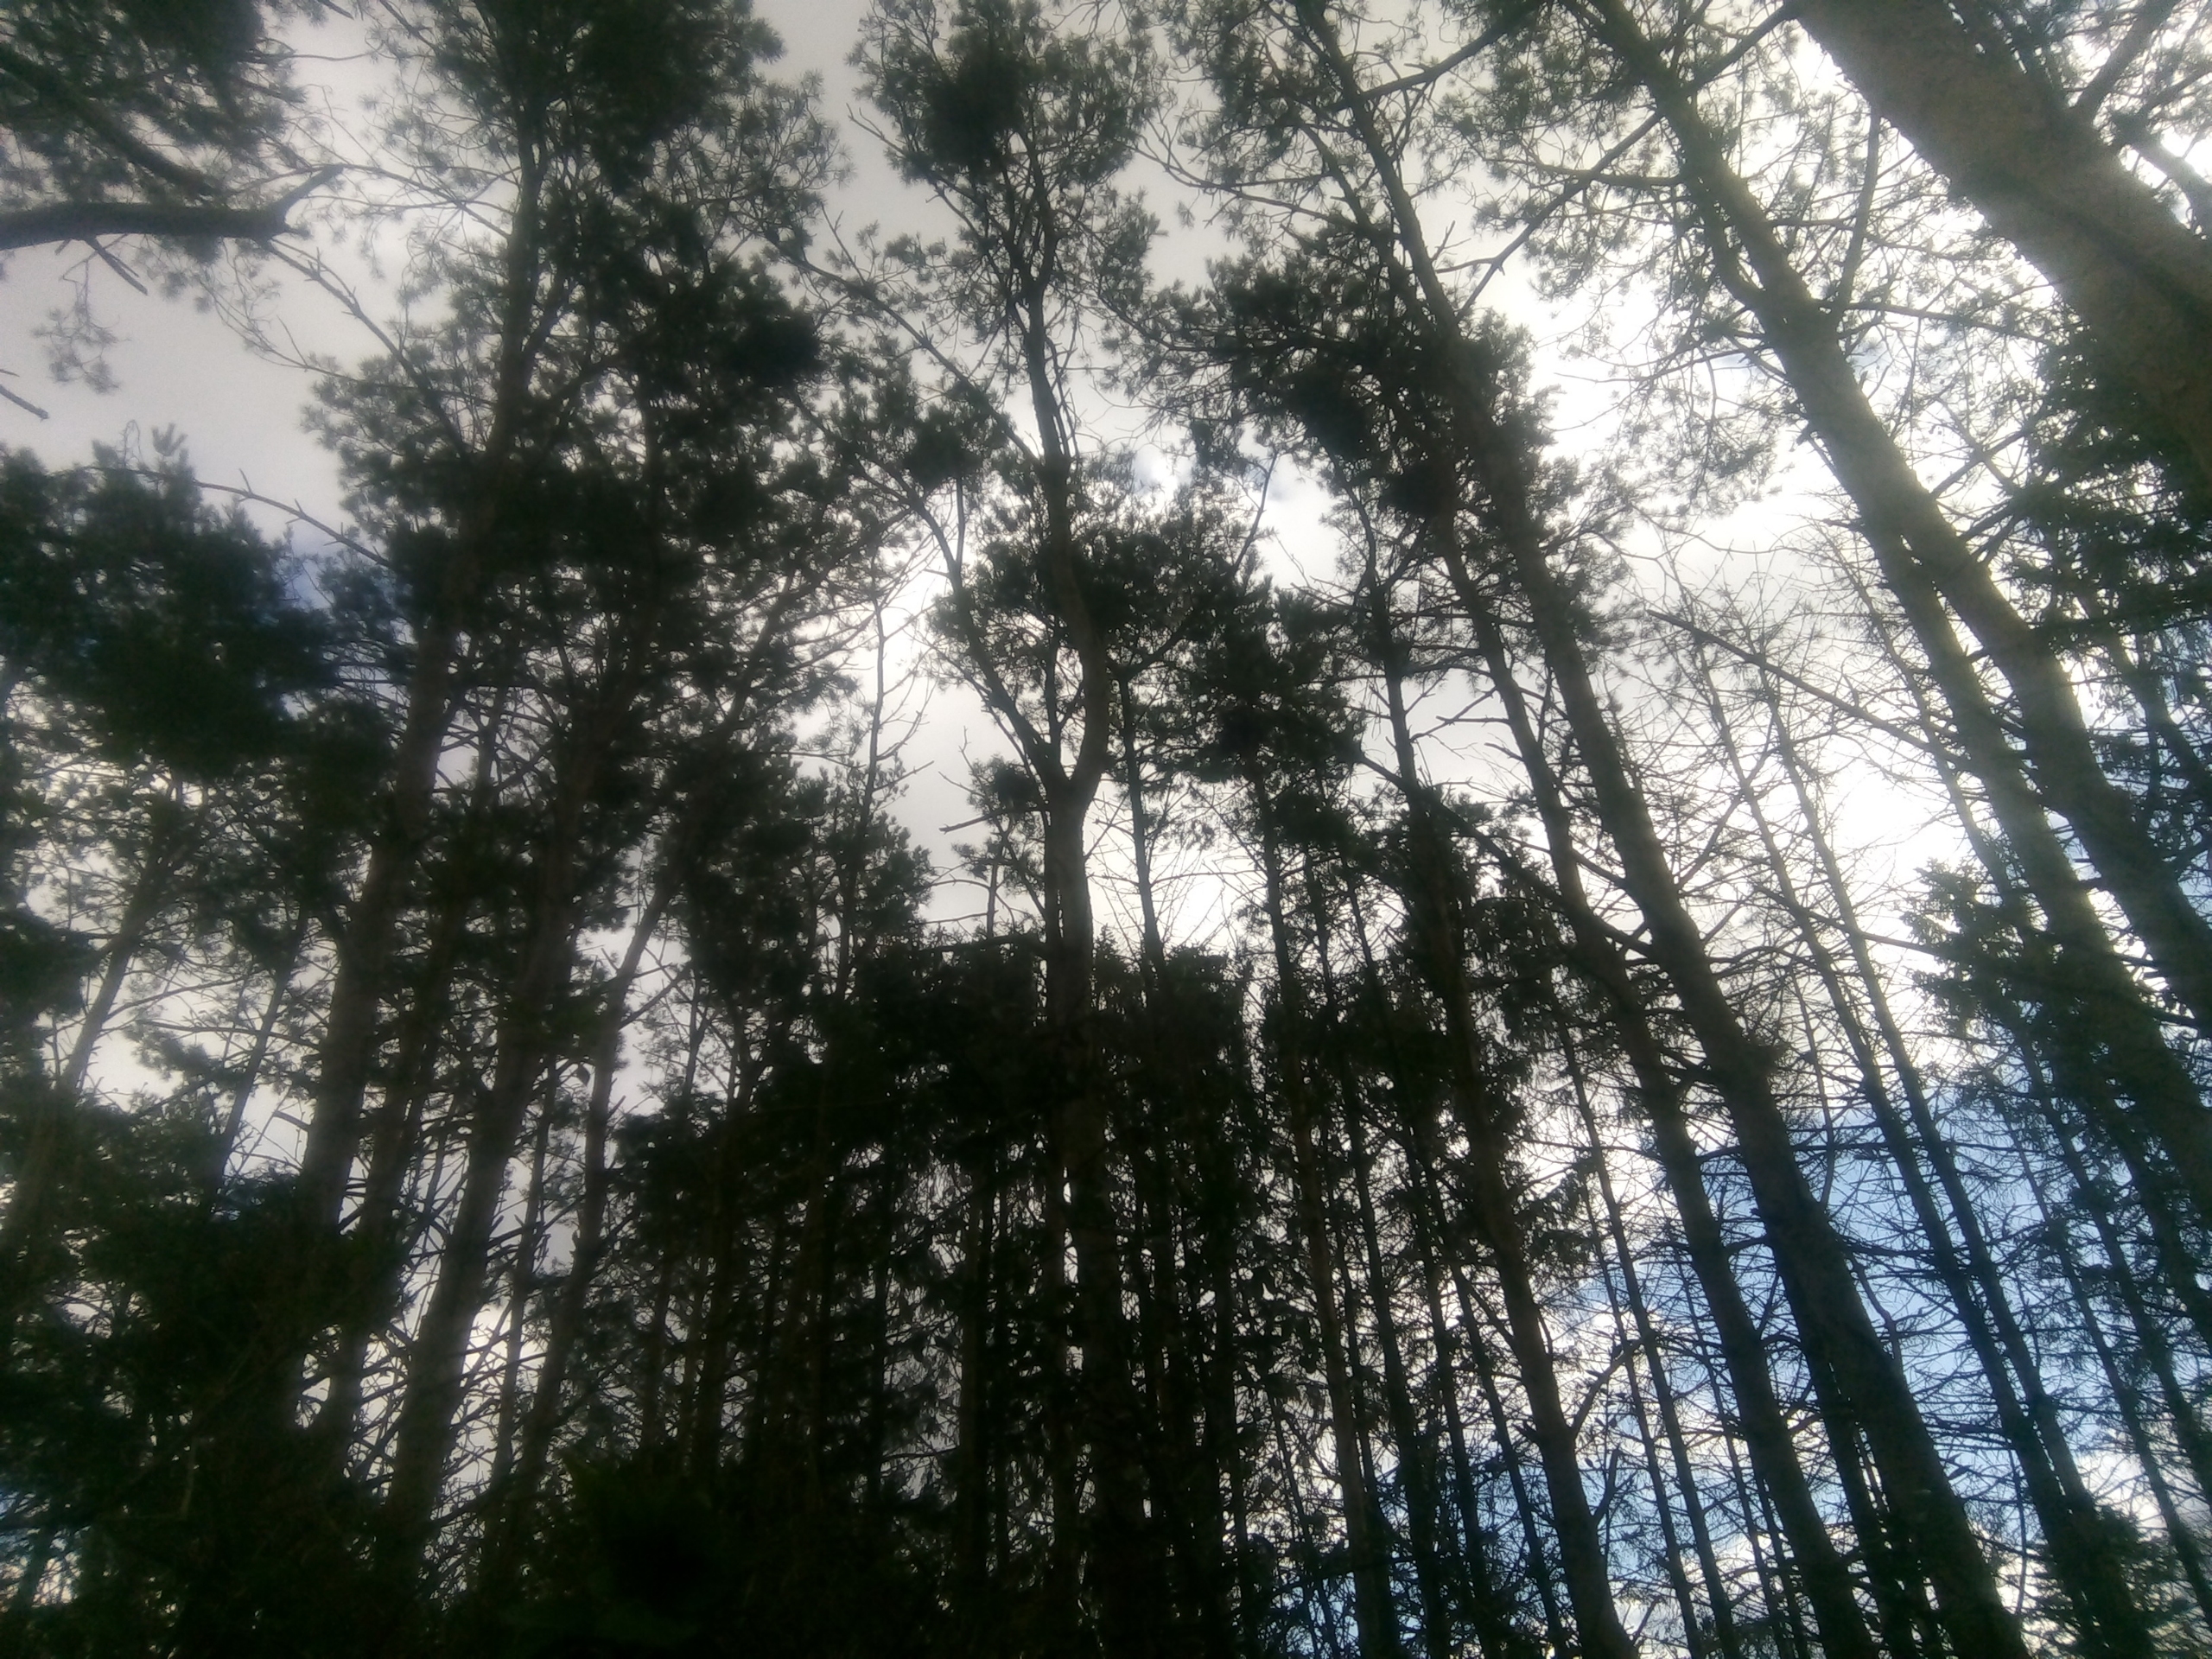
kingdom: Animalia
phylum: Chordata
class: Aves
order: Passeriformes
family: Corvidae
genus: Corvus
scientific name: Corvus frugilegus
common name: Råge
